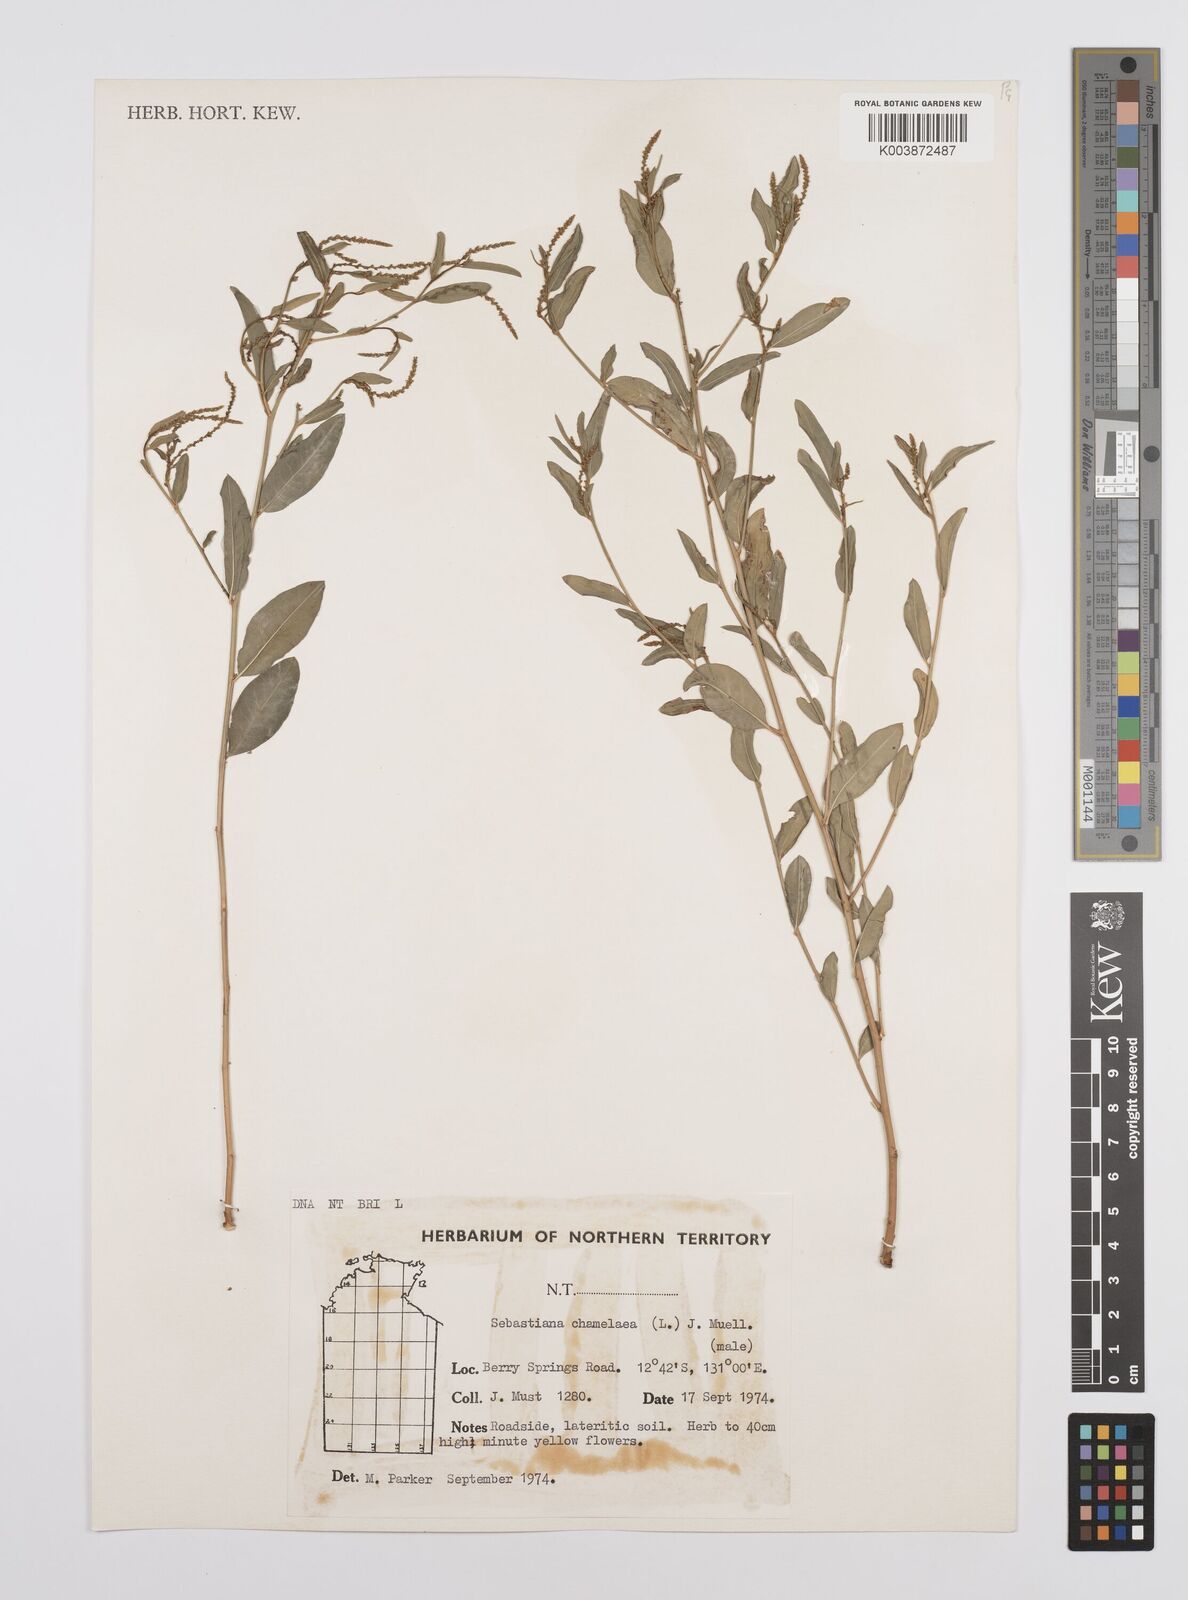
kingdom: Plantae
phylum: Tracheophyta
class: Magnoliopsida
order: Malpighiales
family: Euphorbiaceae
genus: Microstachys
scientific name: Microstachys chamaelea
